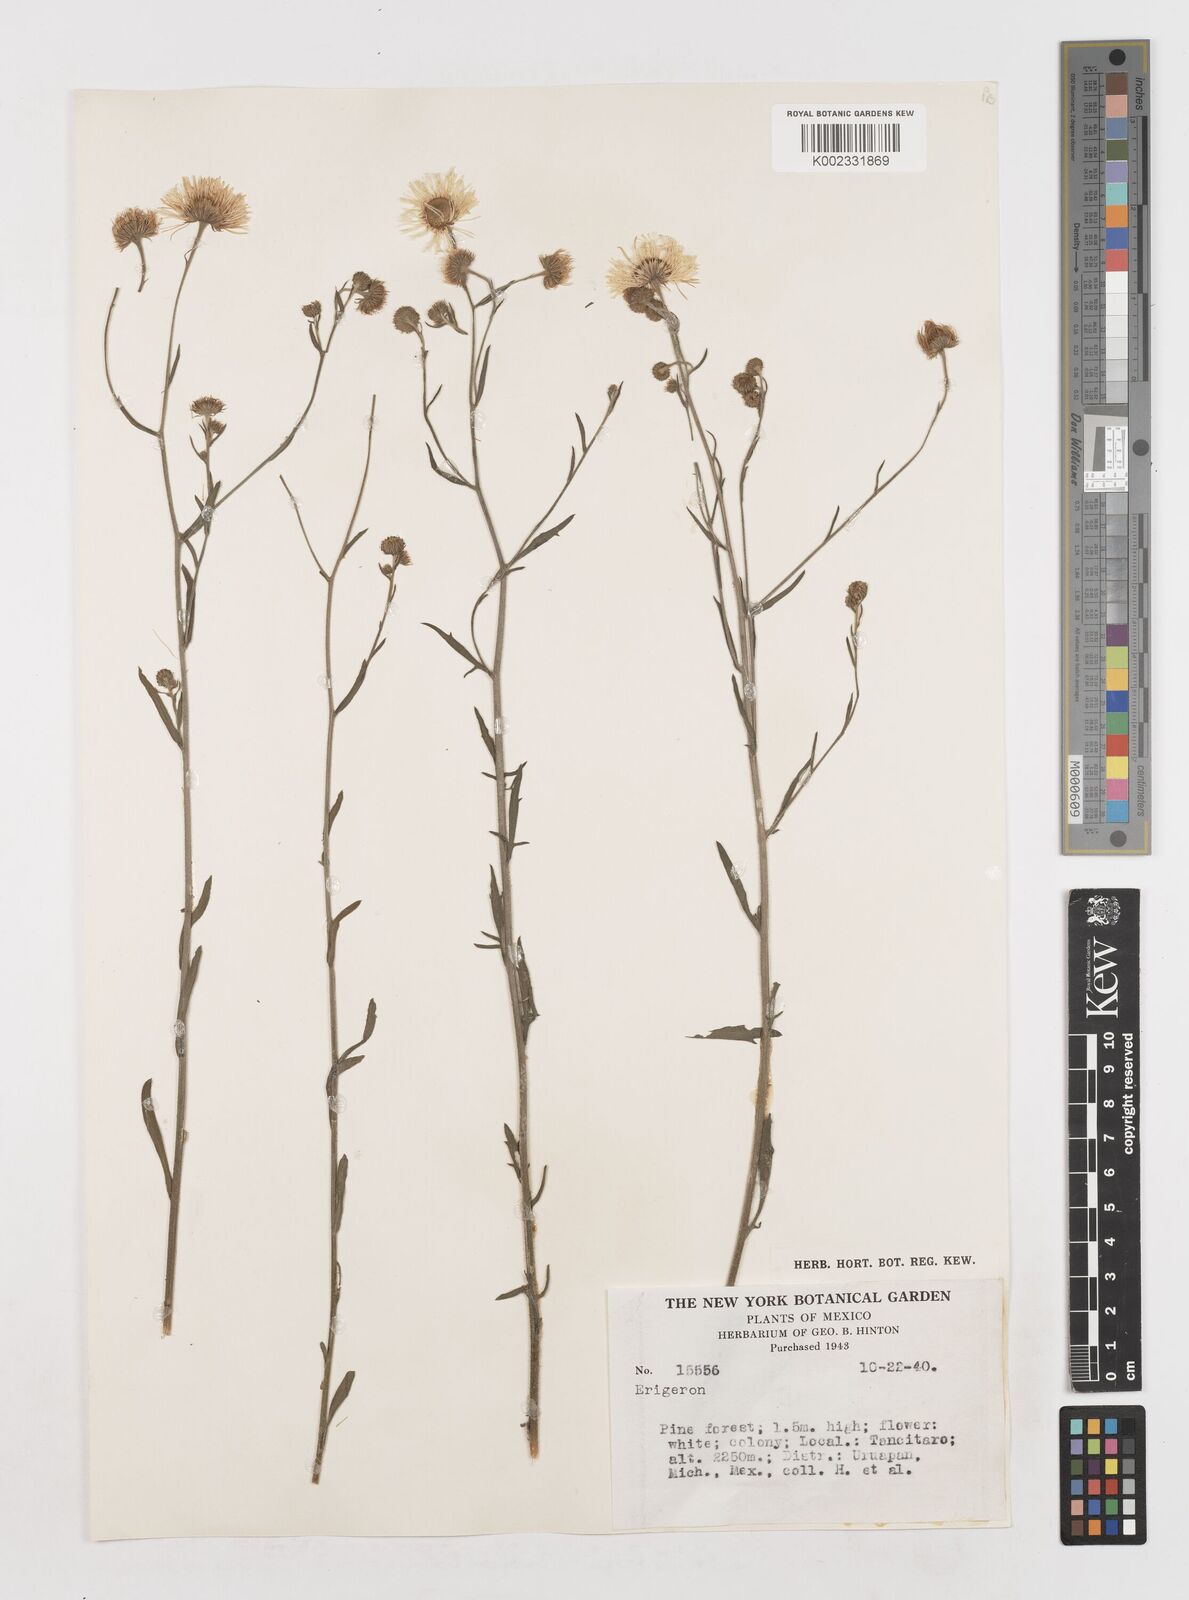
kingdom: Plantae
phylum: Tracheophyta
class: Magnoliopsida
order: Asterales
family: Asteraceae
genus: Erigeron
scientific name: Erigeron
